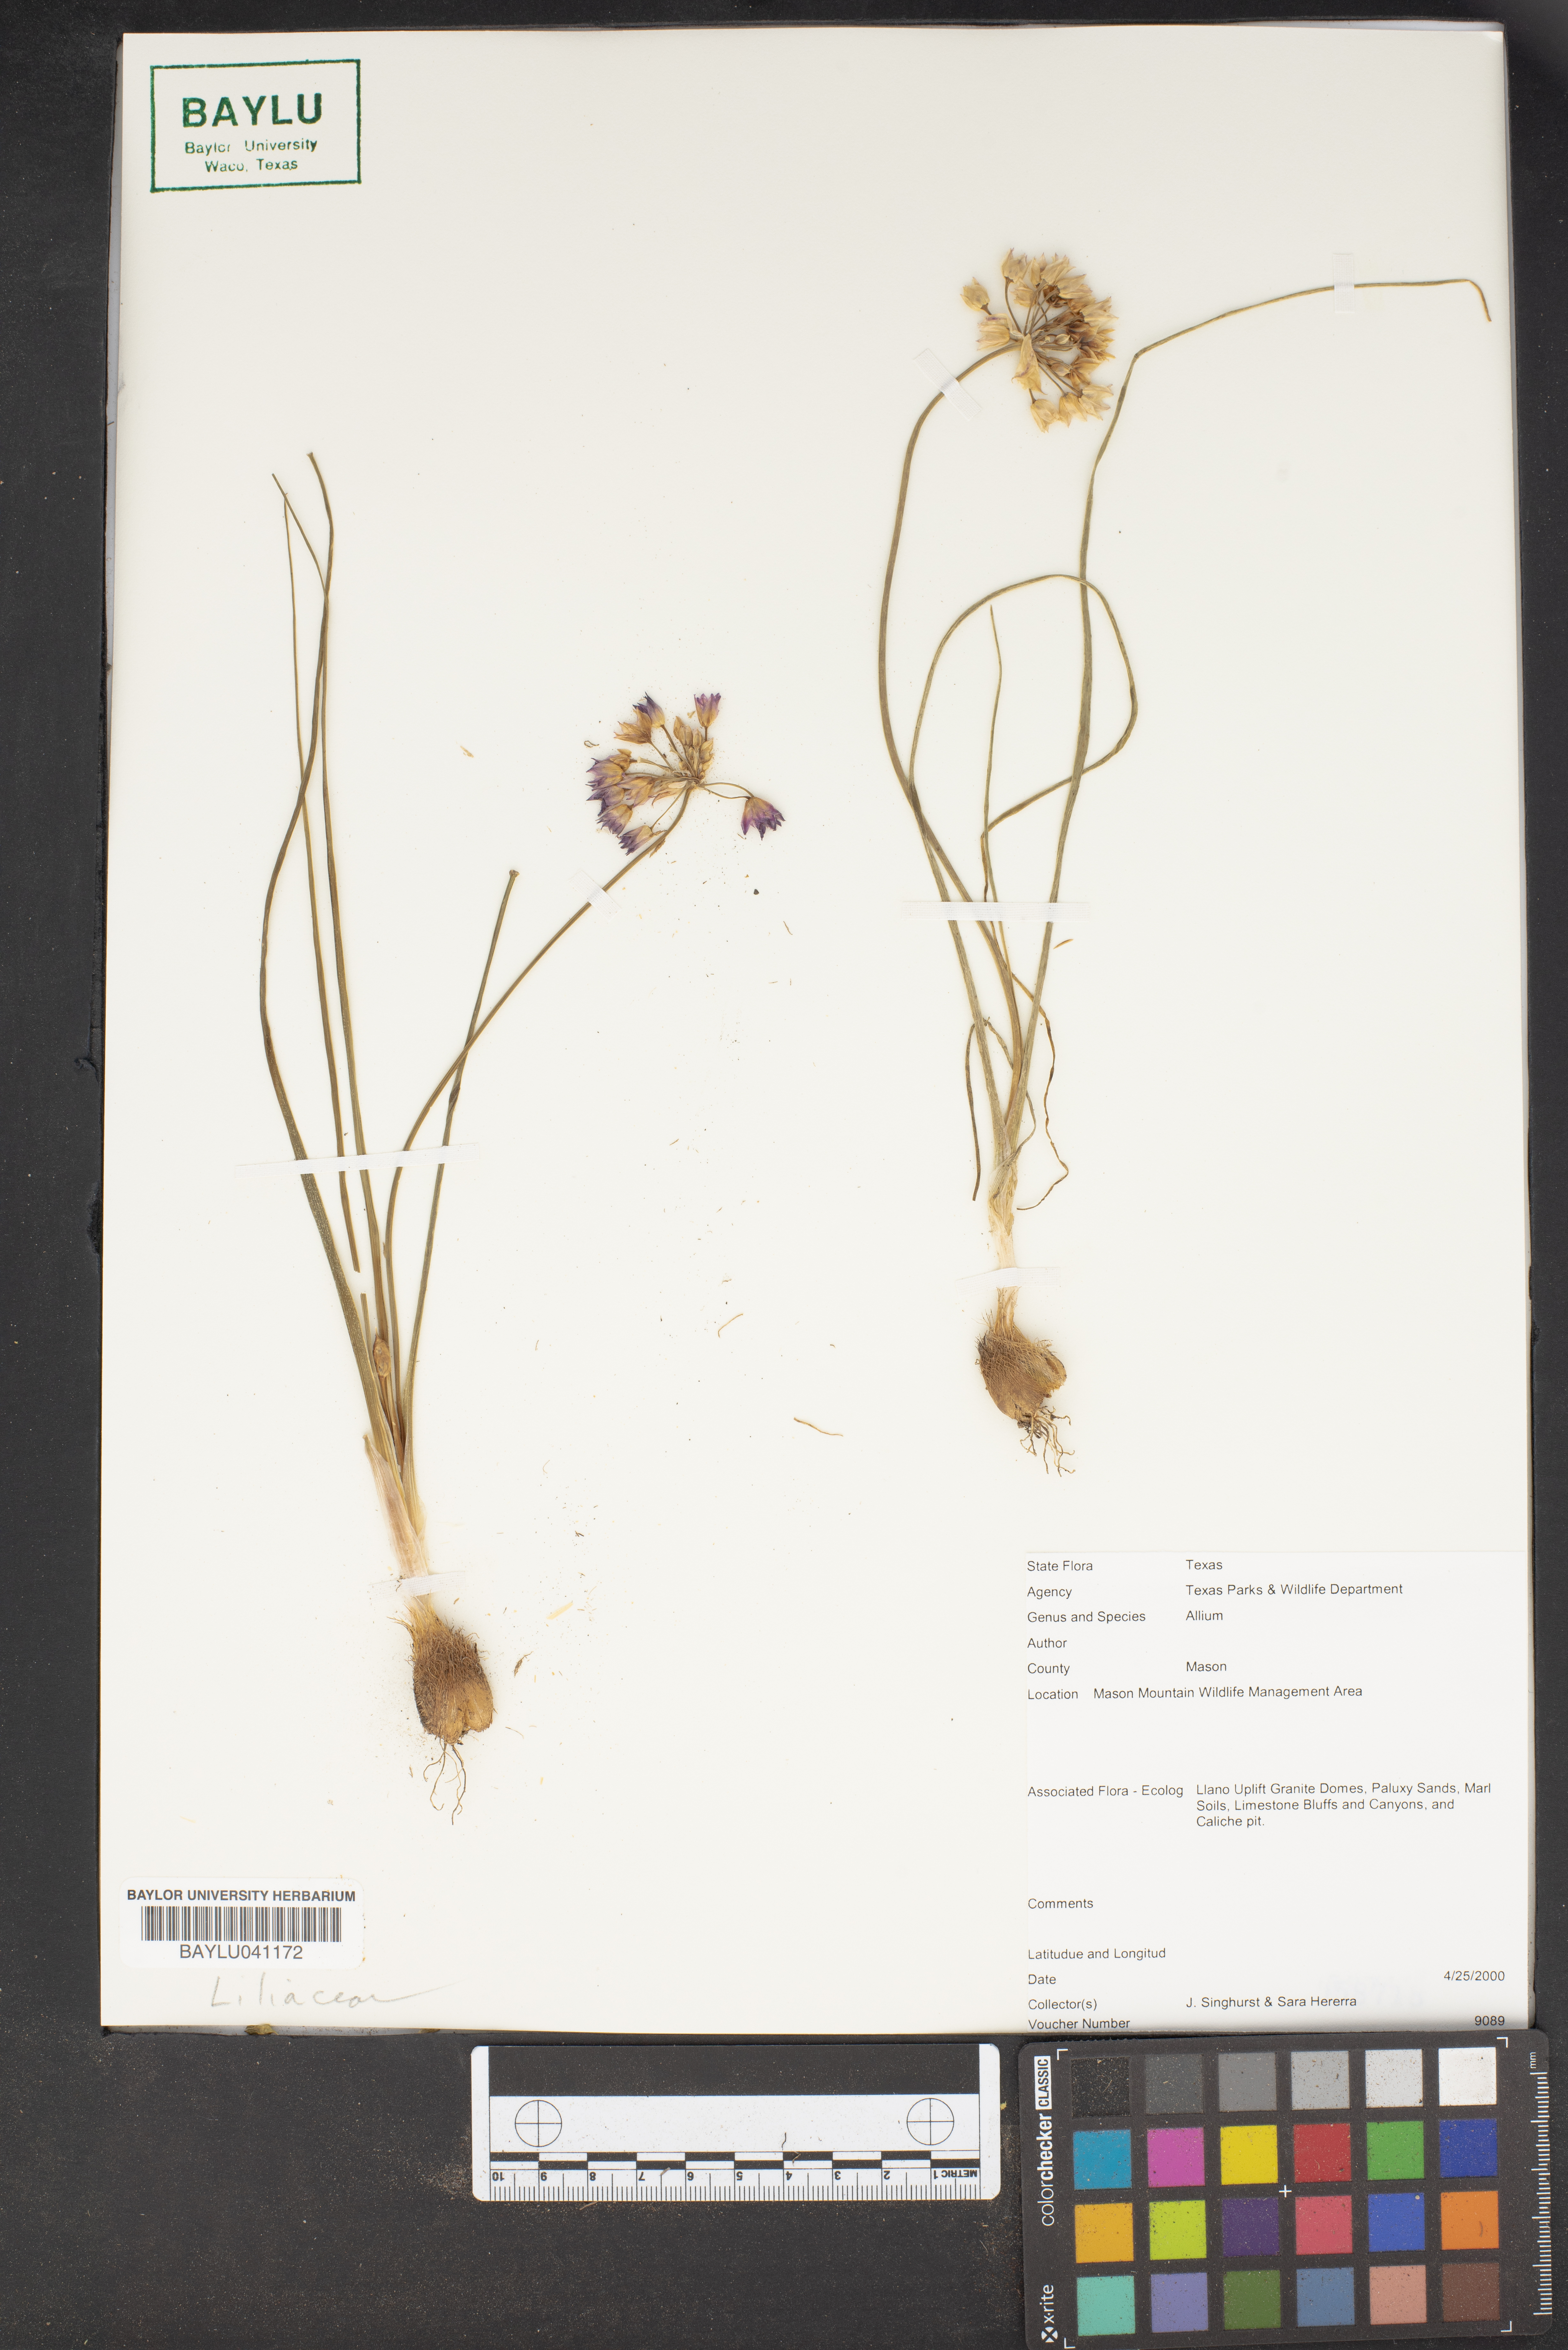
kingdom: Plantae
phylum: Tracheophyta
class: Liliopsida
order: Asparagales
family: Amaryllidaceae
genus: Allium
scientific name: Allium
